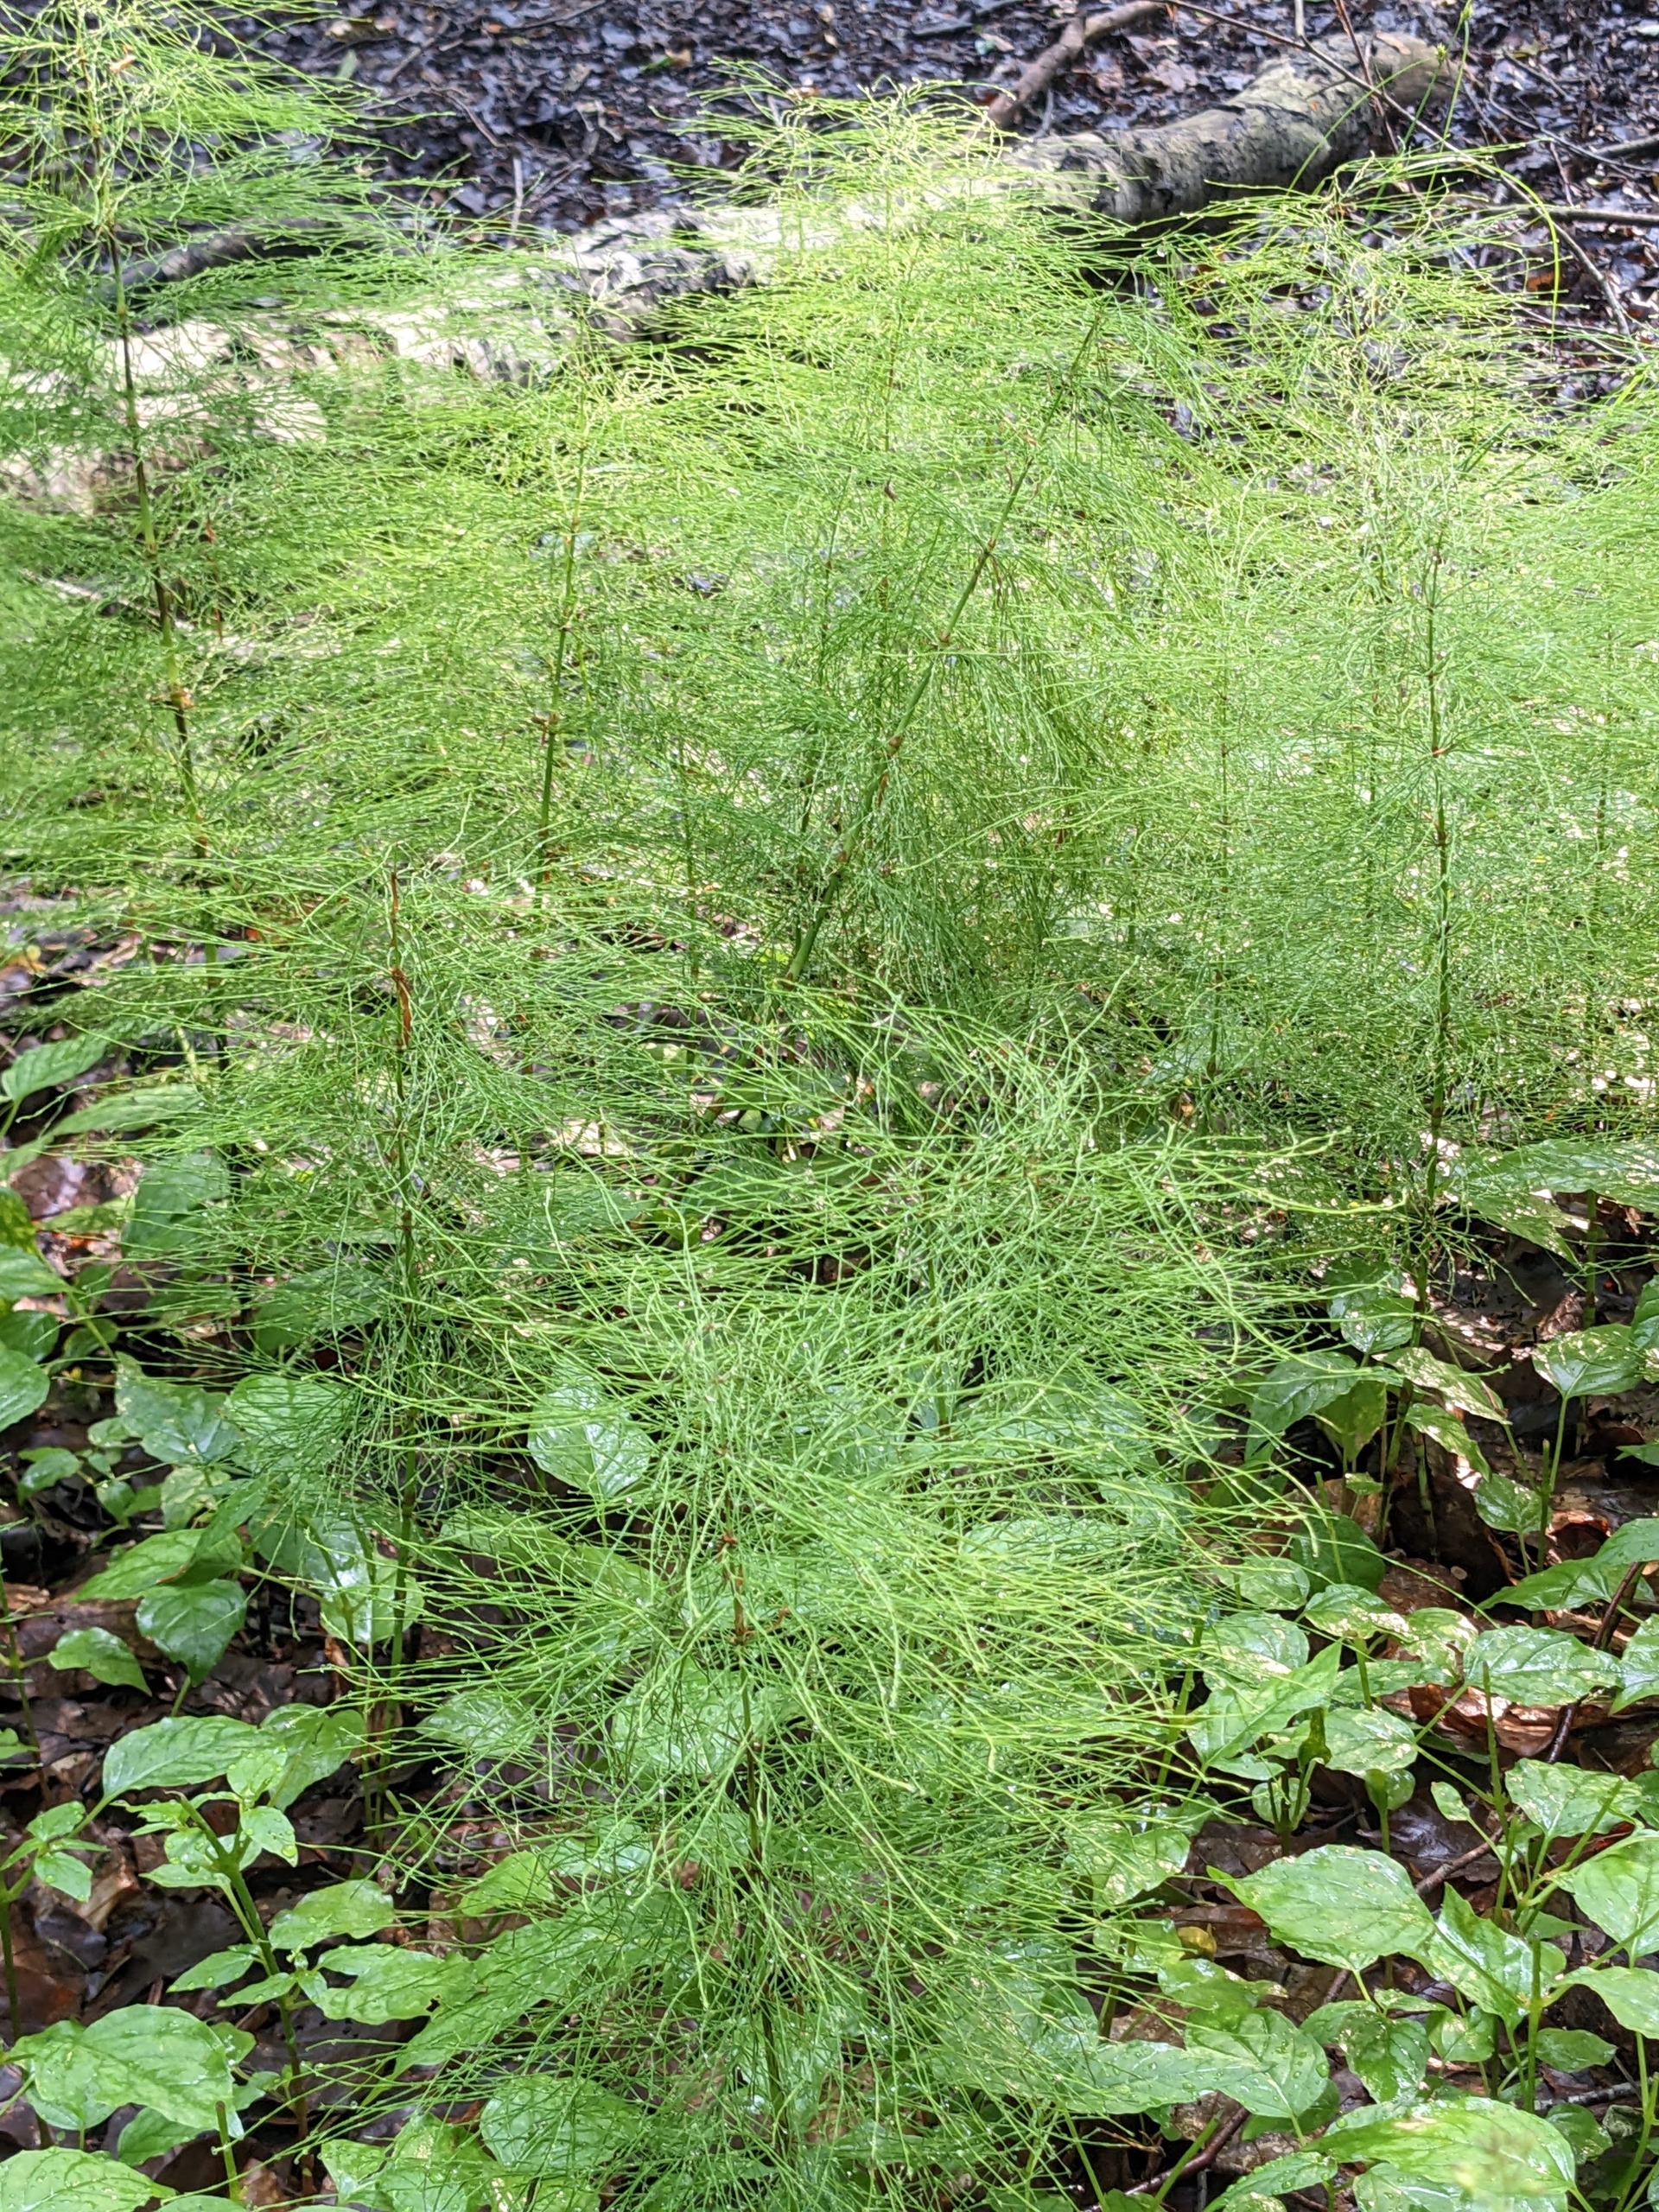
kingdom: Plantae
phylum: Tracheophyta
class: Polypodiopsida
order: Equisetales
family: Equisetaceae
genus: Equisetum
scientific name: Equisetum sylvaticum
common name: Skov-padderok
